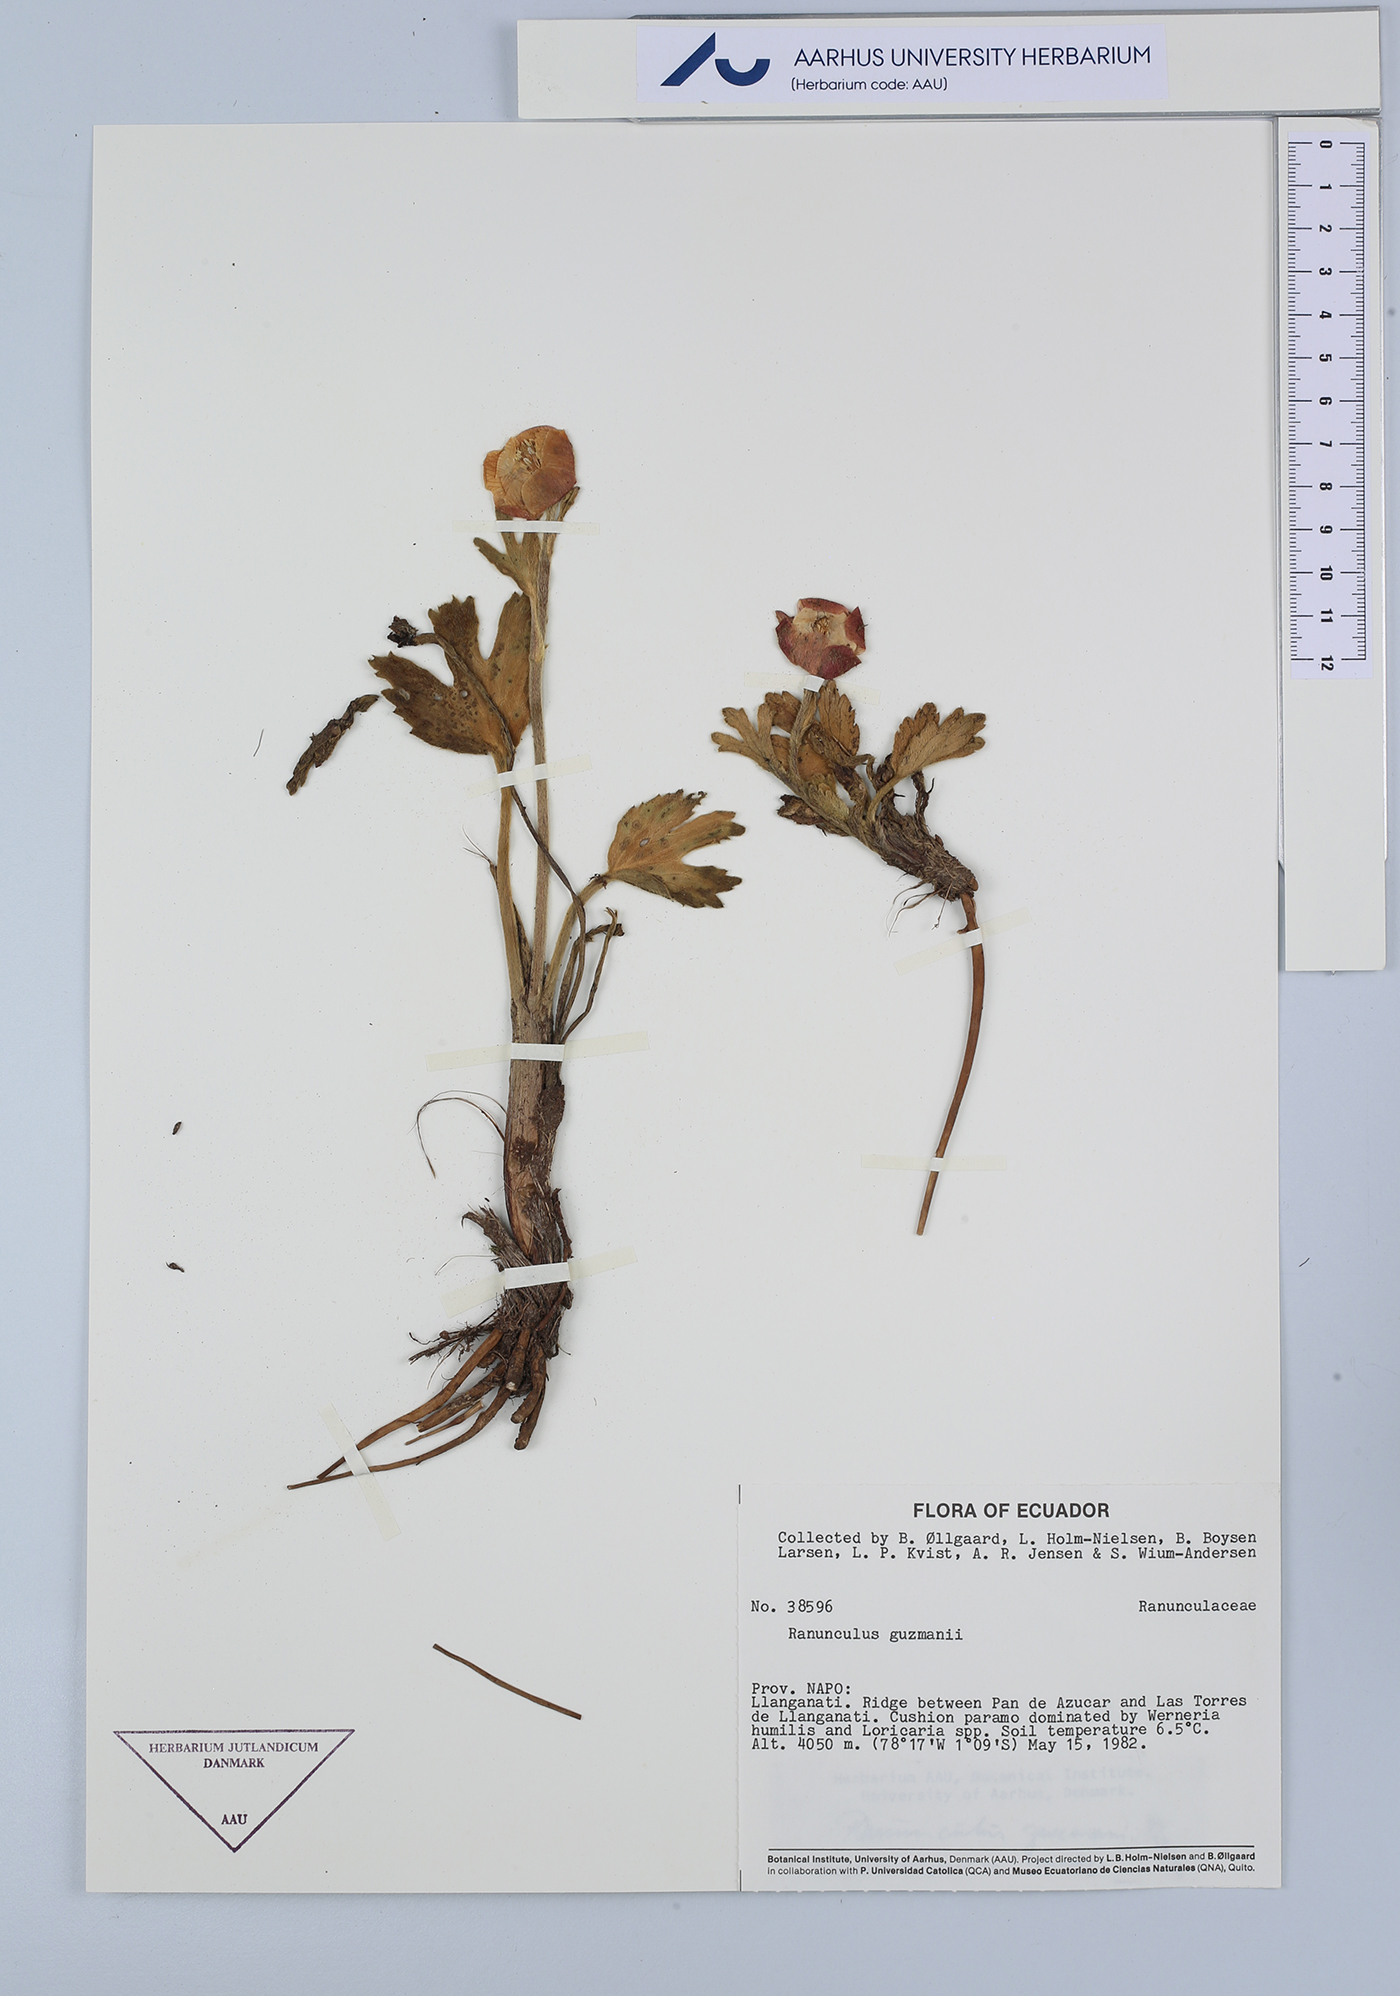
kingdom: Plantae
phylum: Tracheophyta
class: Magnoliopsida
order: Ranunculales
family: Ranunculaceae
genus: Krapfia
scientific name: Krapfia ranunculina
